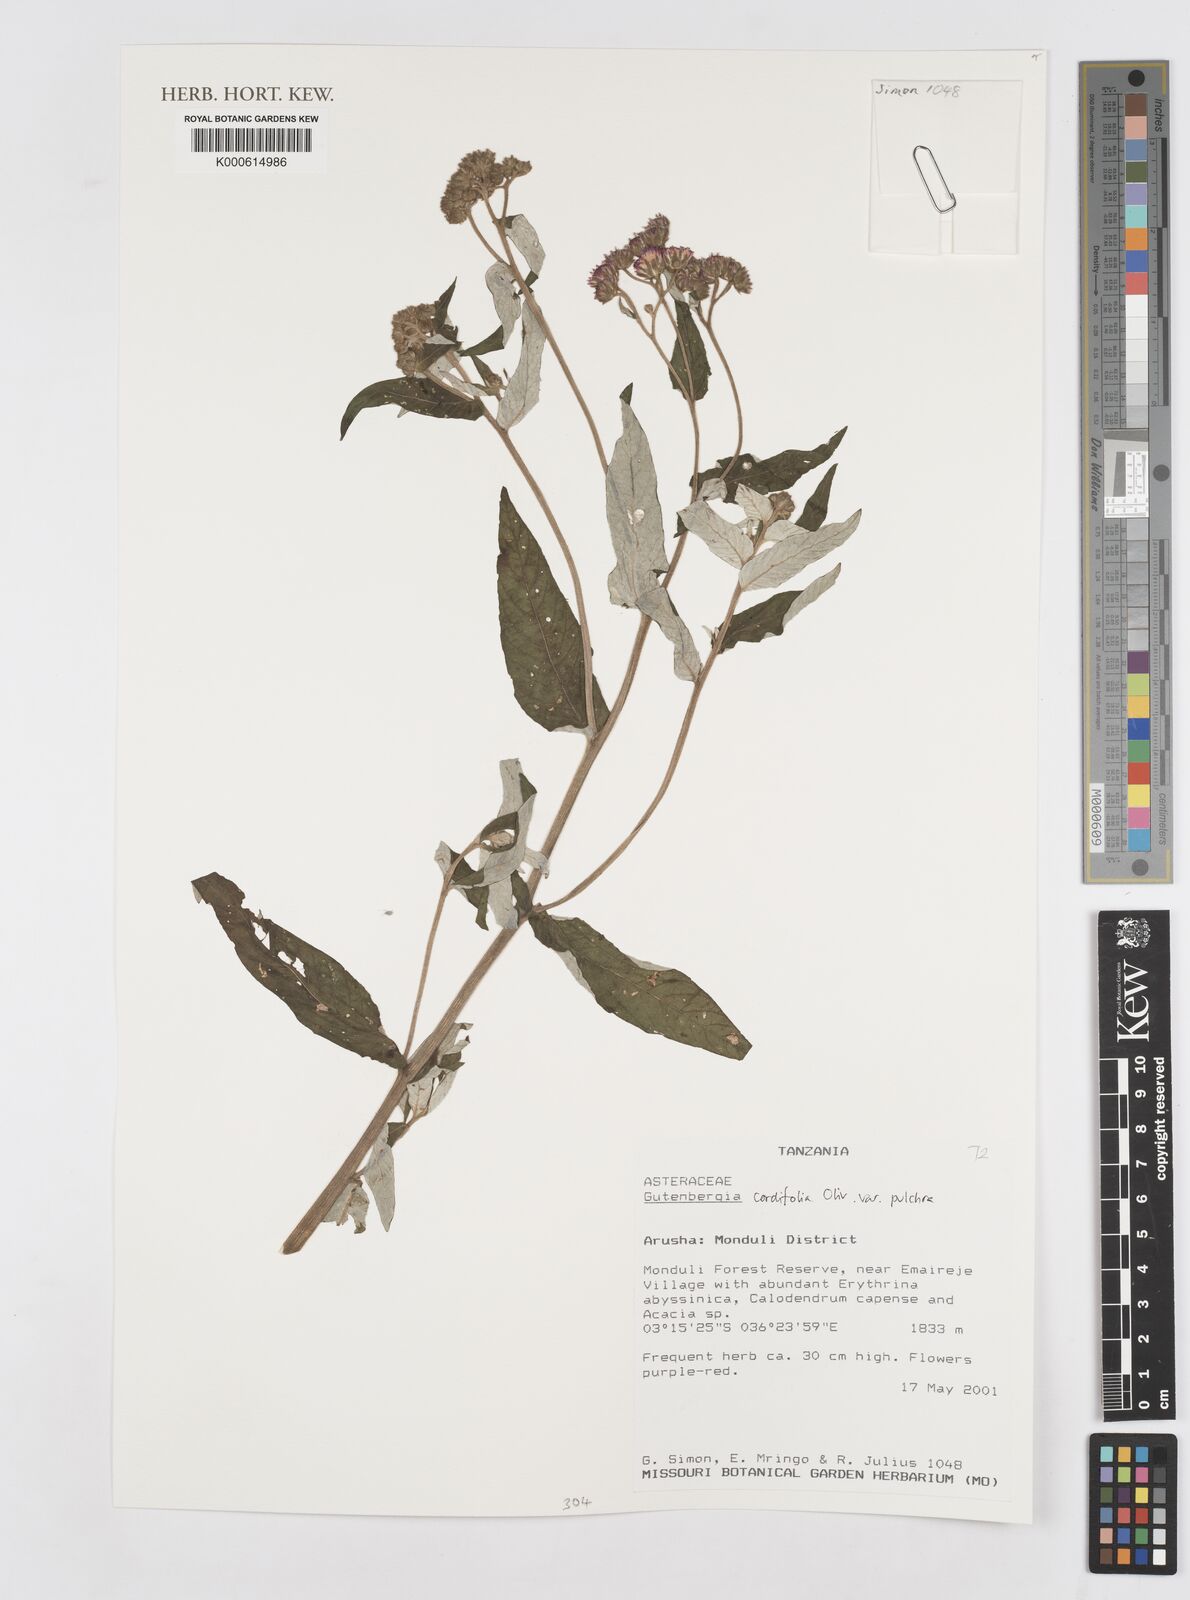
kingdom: Plantae
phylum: Tracheophyta
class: Magnoliopsida
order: Asterales
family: Asteraceae
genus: Gutenbergia
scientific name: Gutenbergia cordifolia
